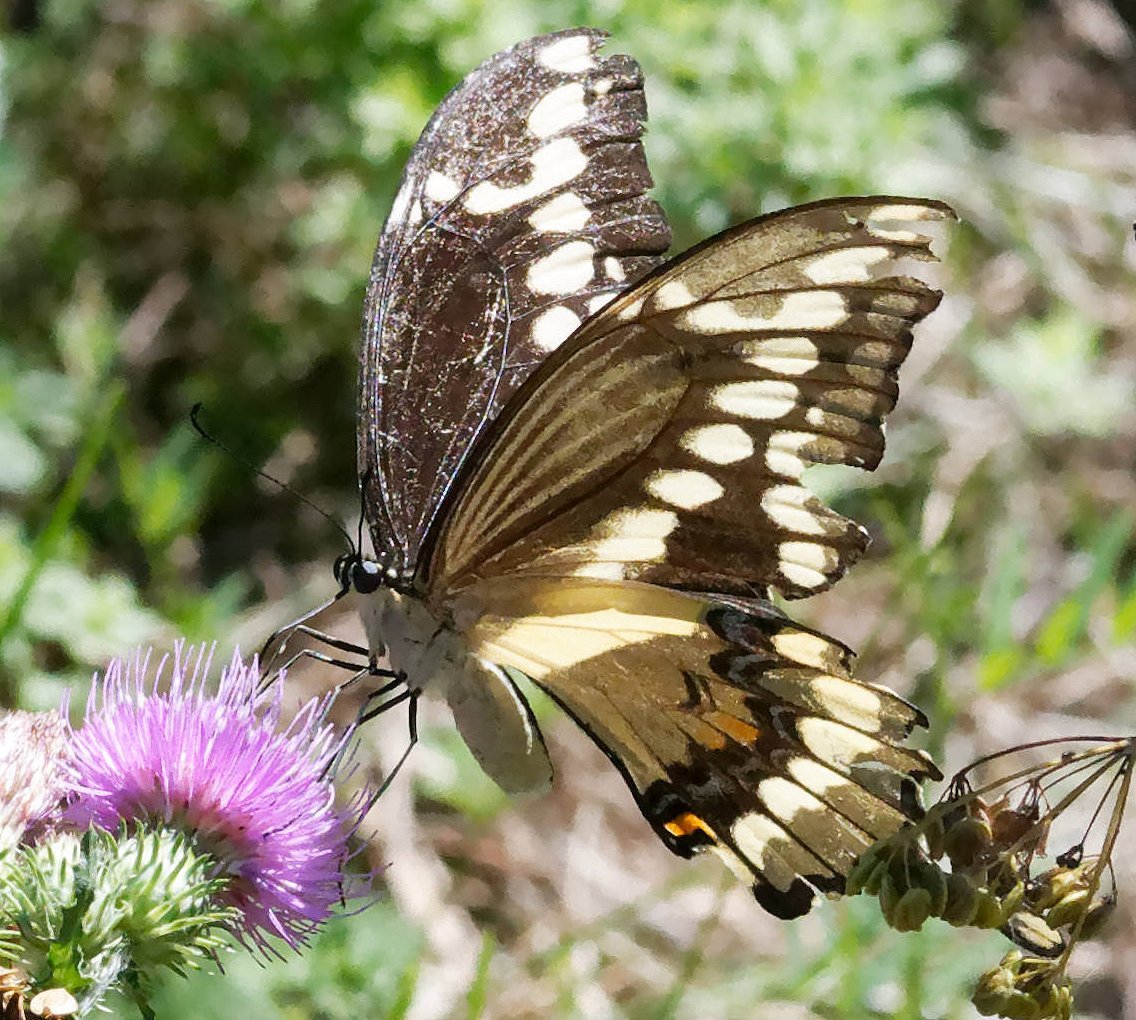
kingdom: Animalia
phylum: Arthropoda
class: Insecta
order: Lepidoptera
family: Papilionidae
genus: Papilio
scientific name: Papilio cresphontes
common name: Eastern Giant Swallowtail
